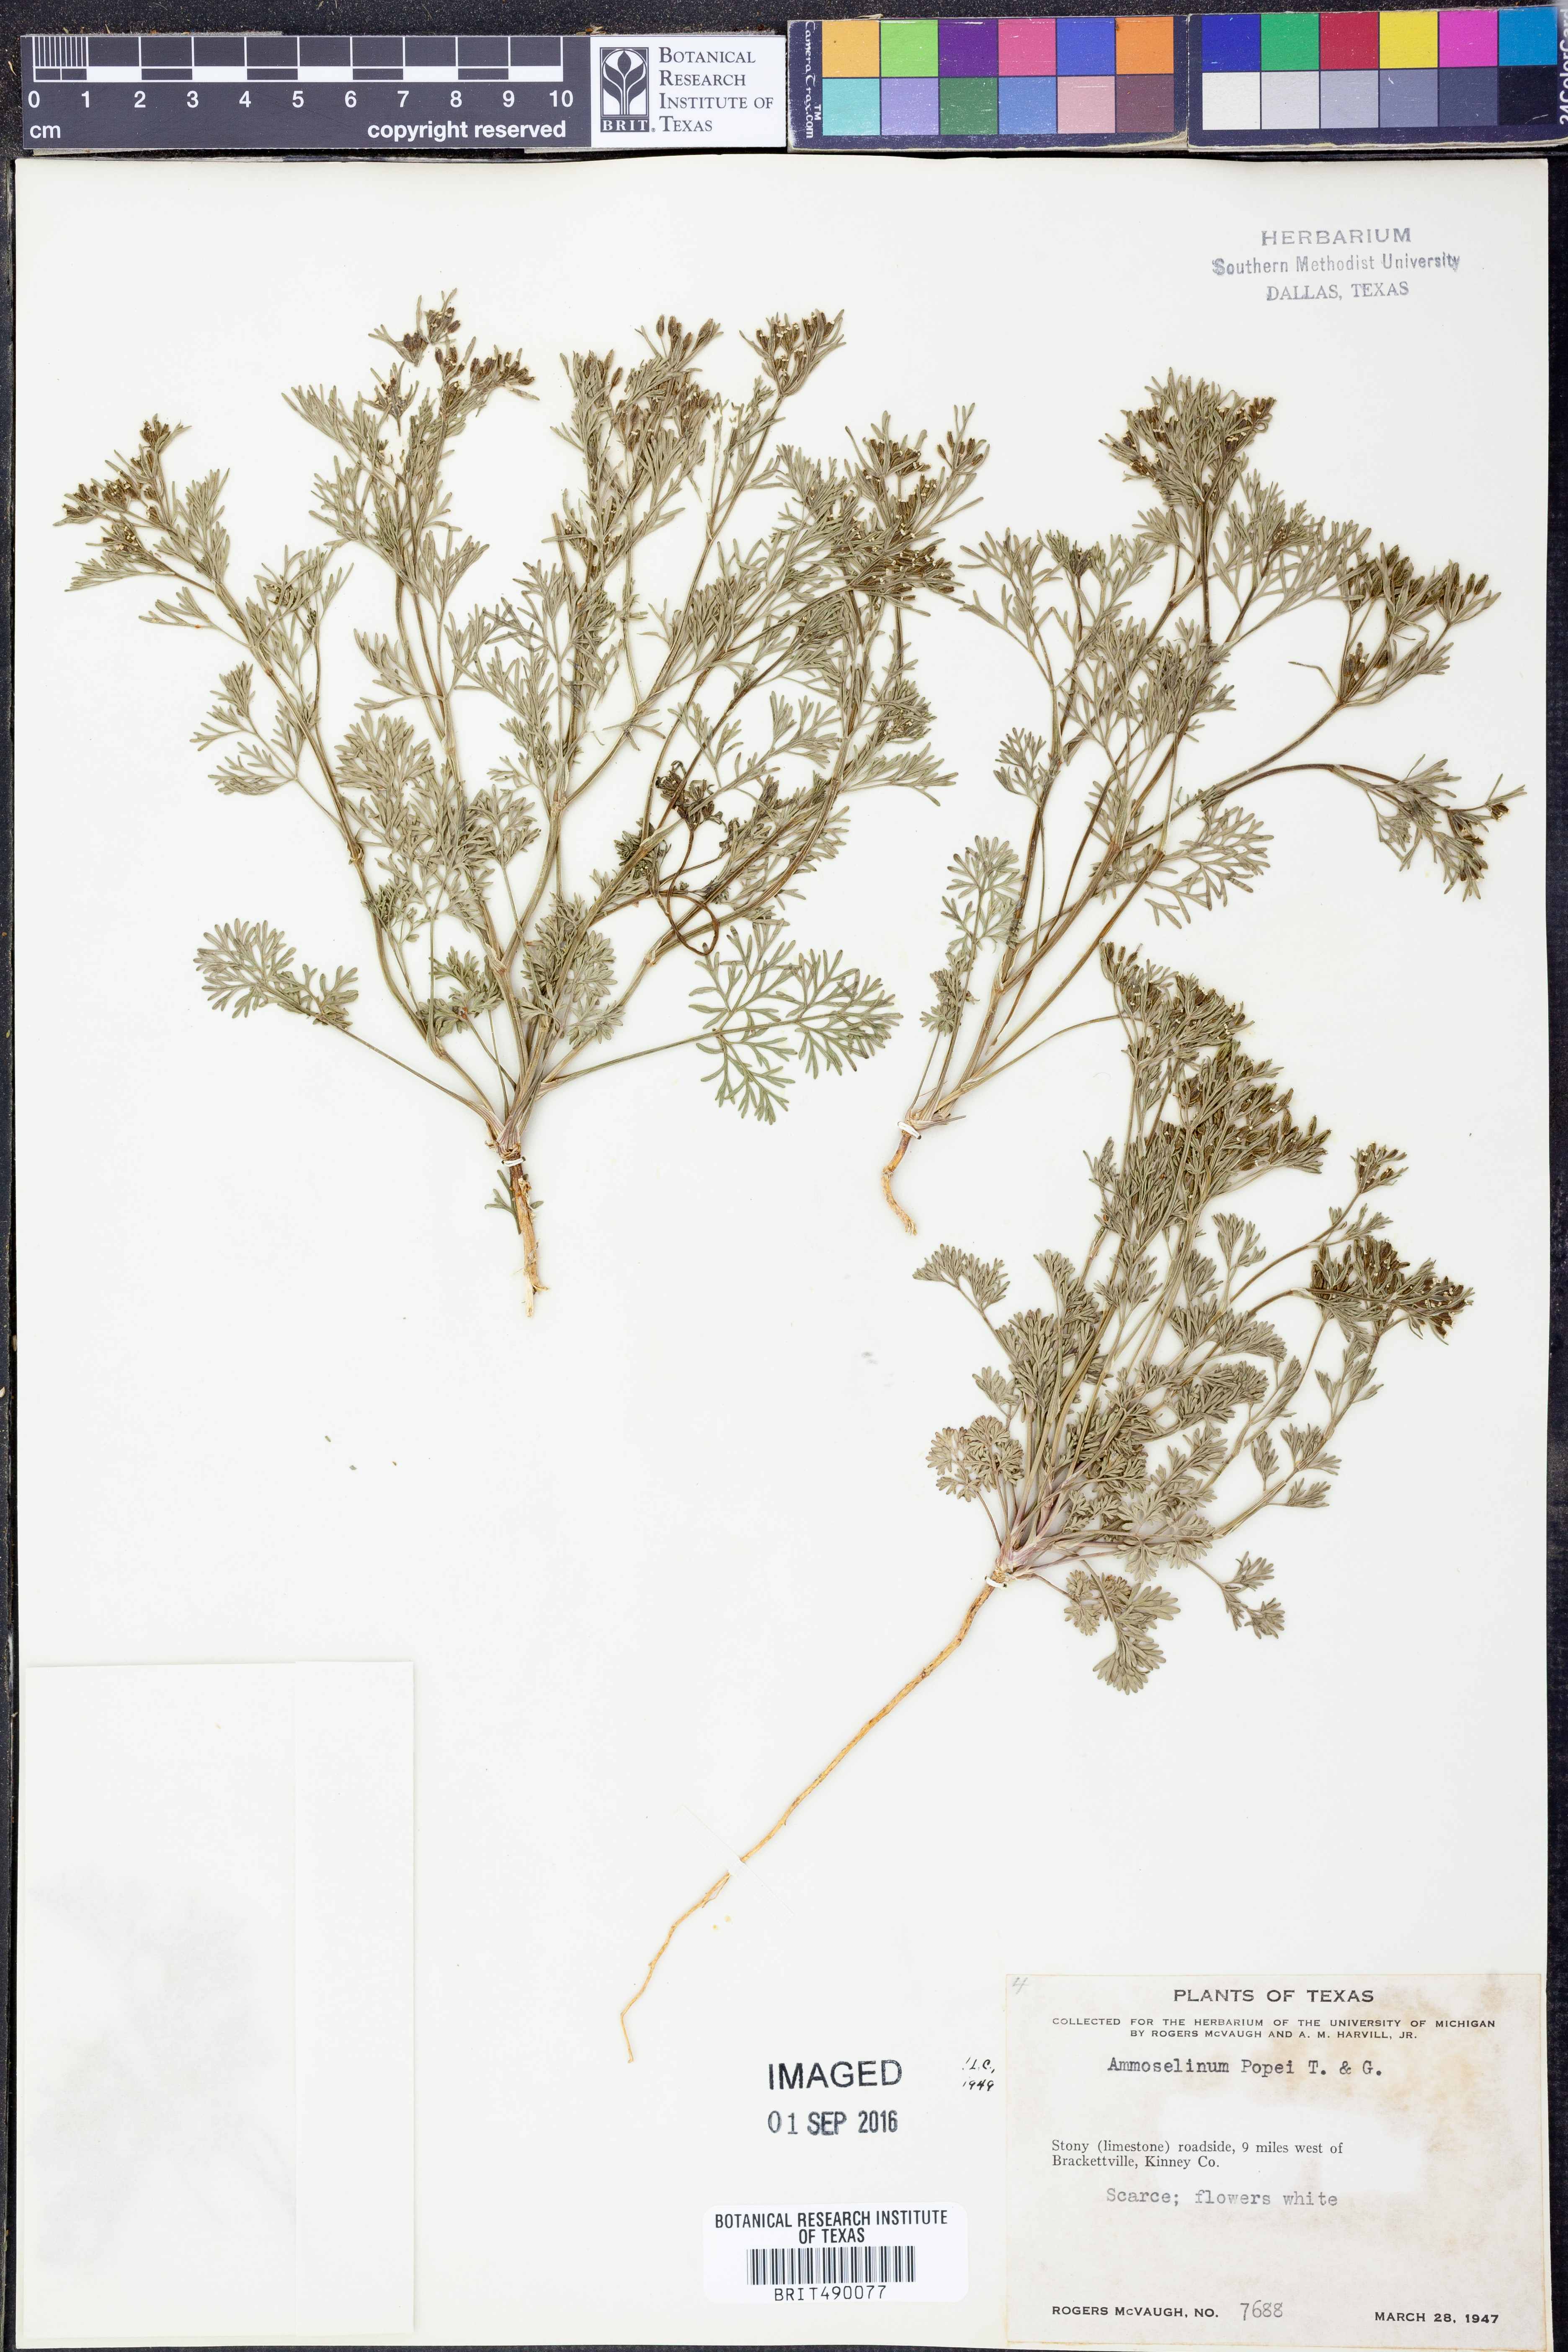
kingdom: Plantae
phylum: Tracheophyta
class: Magnoliopsida
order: Apiales
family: Apiaceae
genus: Ammoselinum
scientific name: Ammoselinum popei
